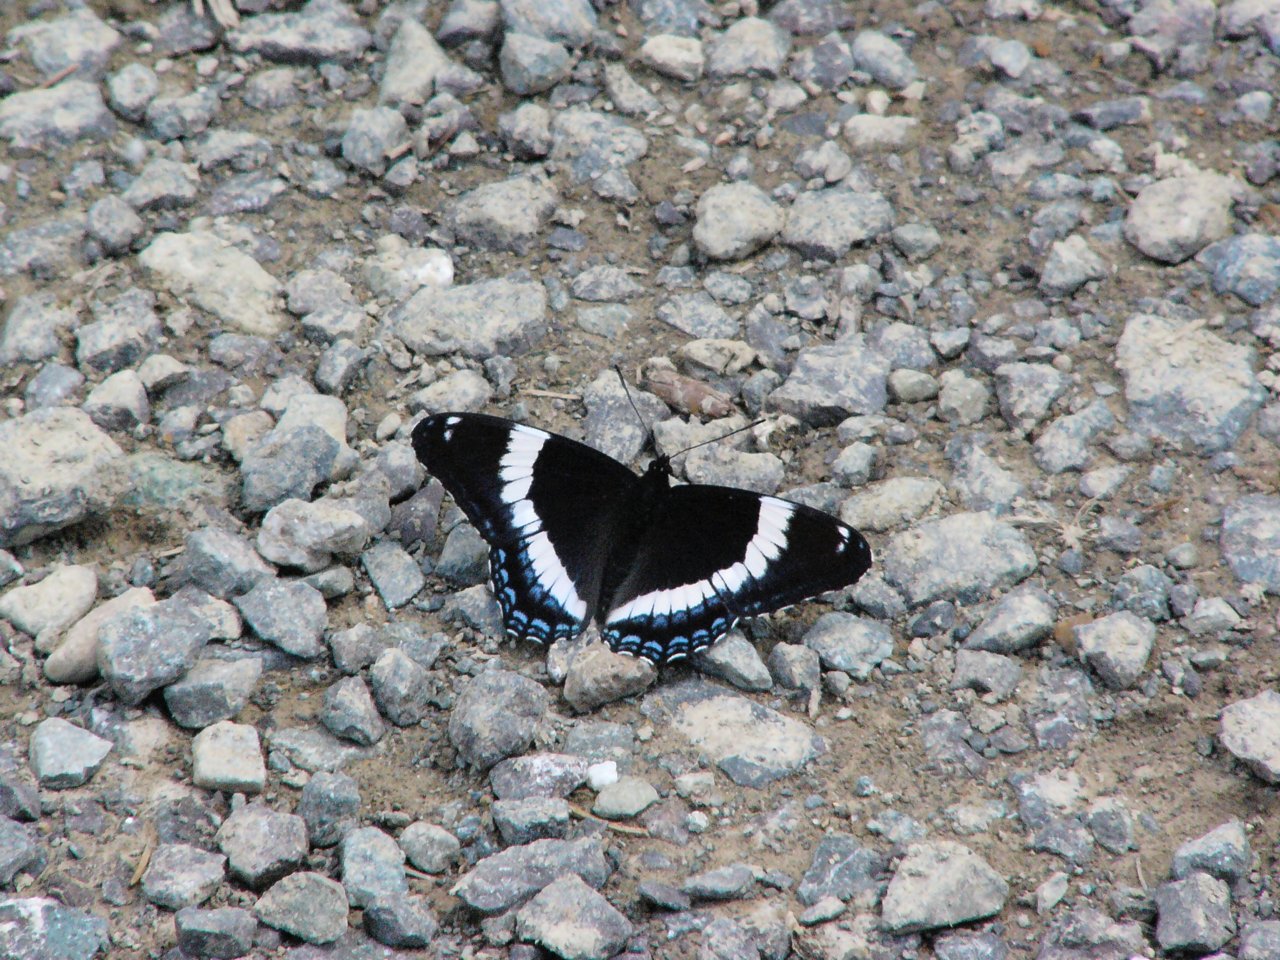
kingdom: Animalia
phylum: Arthropoda
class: Insecta
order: Lepidoptera
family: Nymphalidae
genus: Limenitis
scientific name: Limenitis arthemis
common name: Red-spotted Admiral
